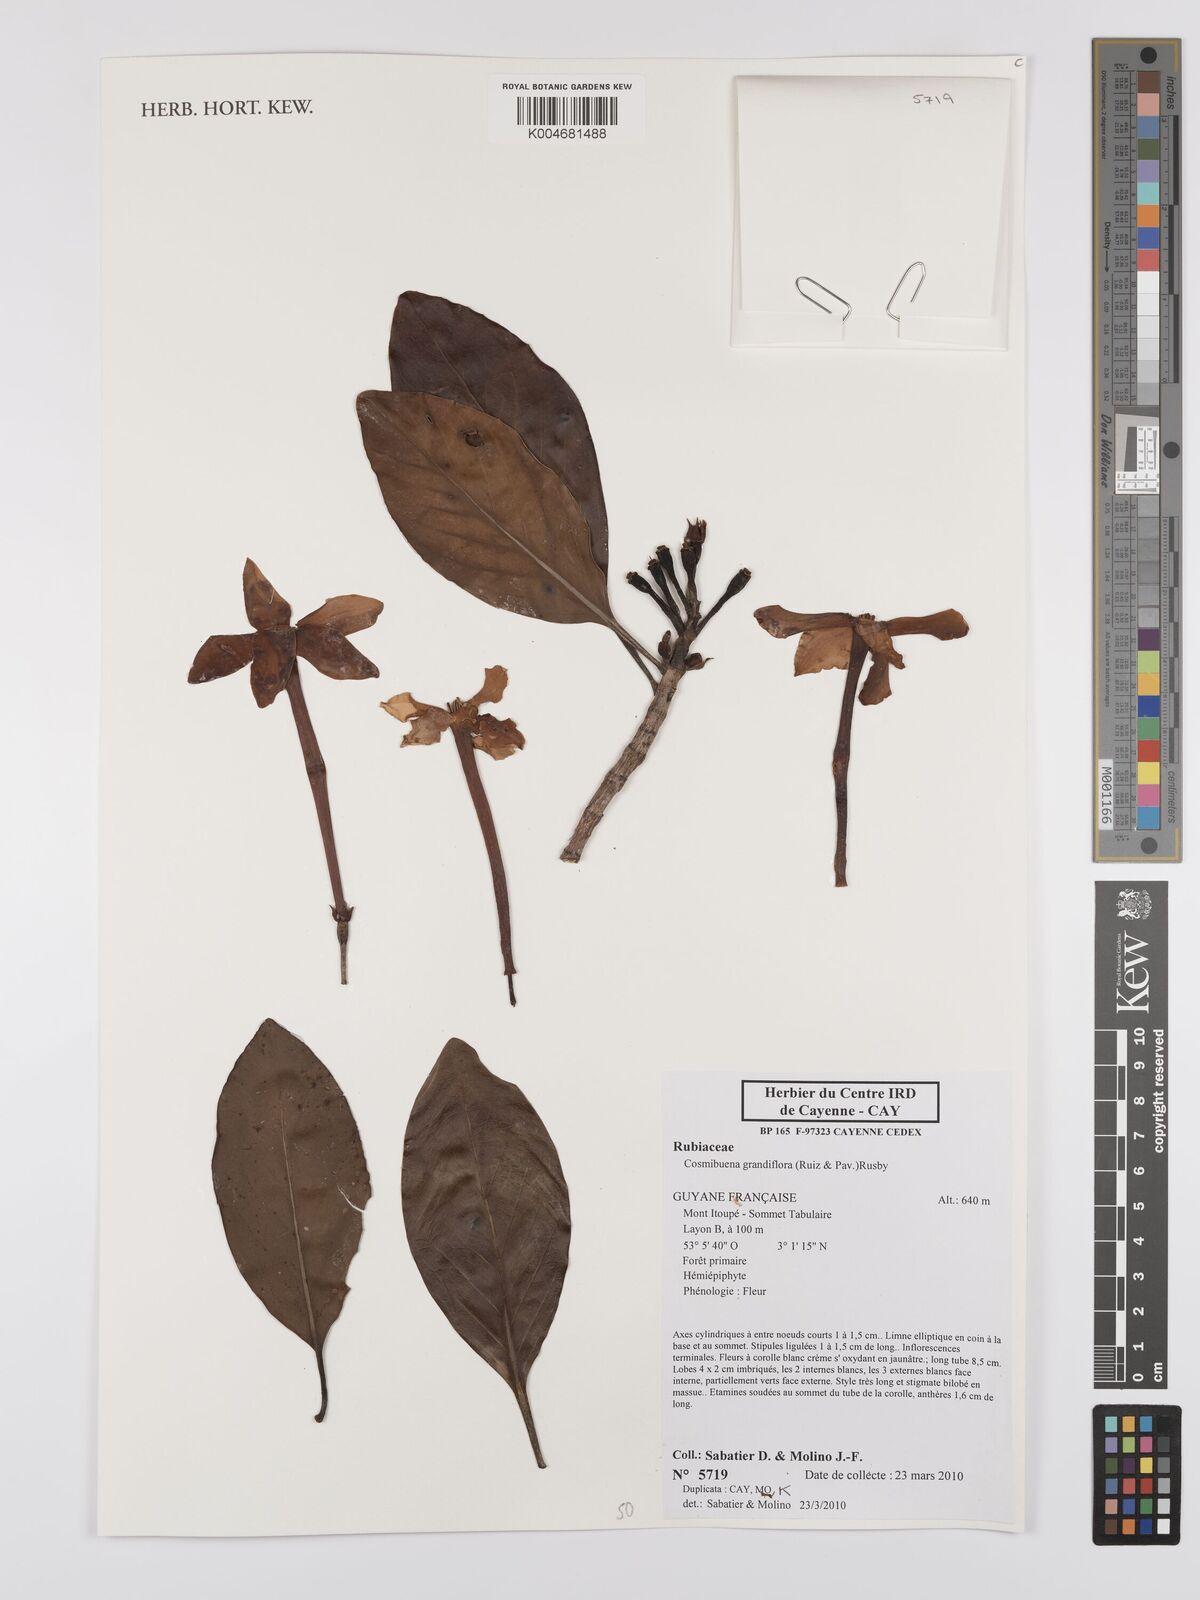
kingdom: Plantae
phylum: Tracheophyta
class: Magnoliopsida
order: Gentianales
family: Rubiaceae
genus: Cosmibuena
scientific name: Cosmibuena grandiflora
